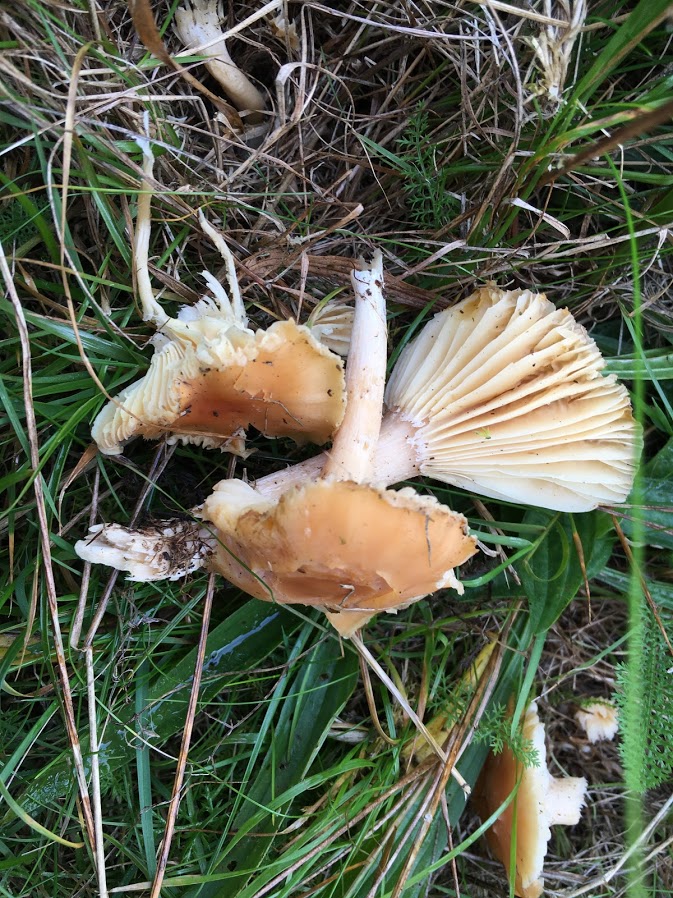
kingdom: Fungi
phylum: Basidiomycota
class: Agaricomycetes
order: Agaricales
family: Hygrophoraceae
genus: Cuphophyllus
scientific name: Cuphophyllus pratensis
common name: eng-vokshat
